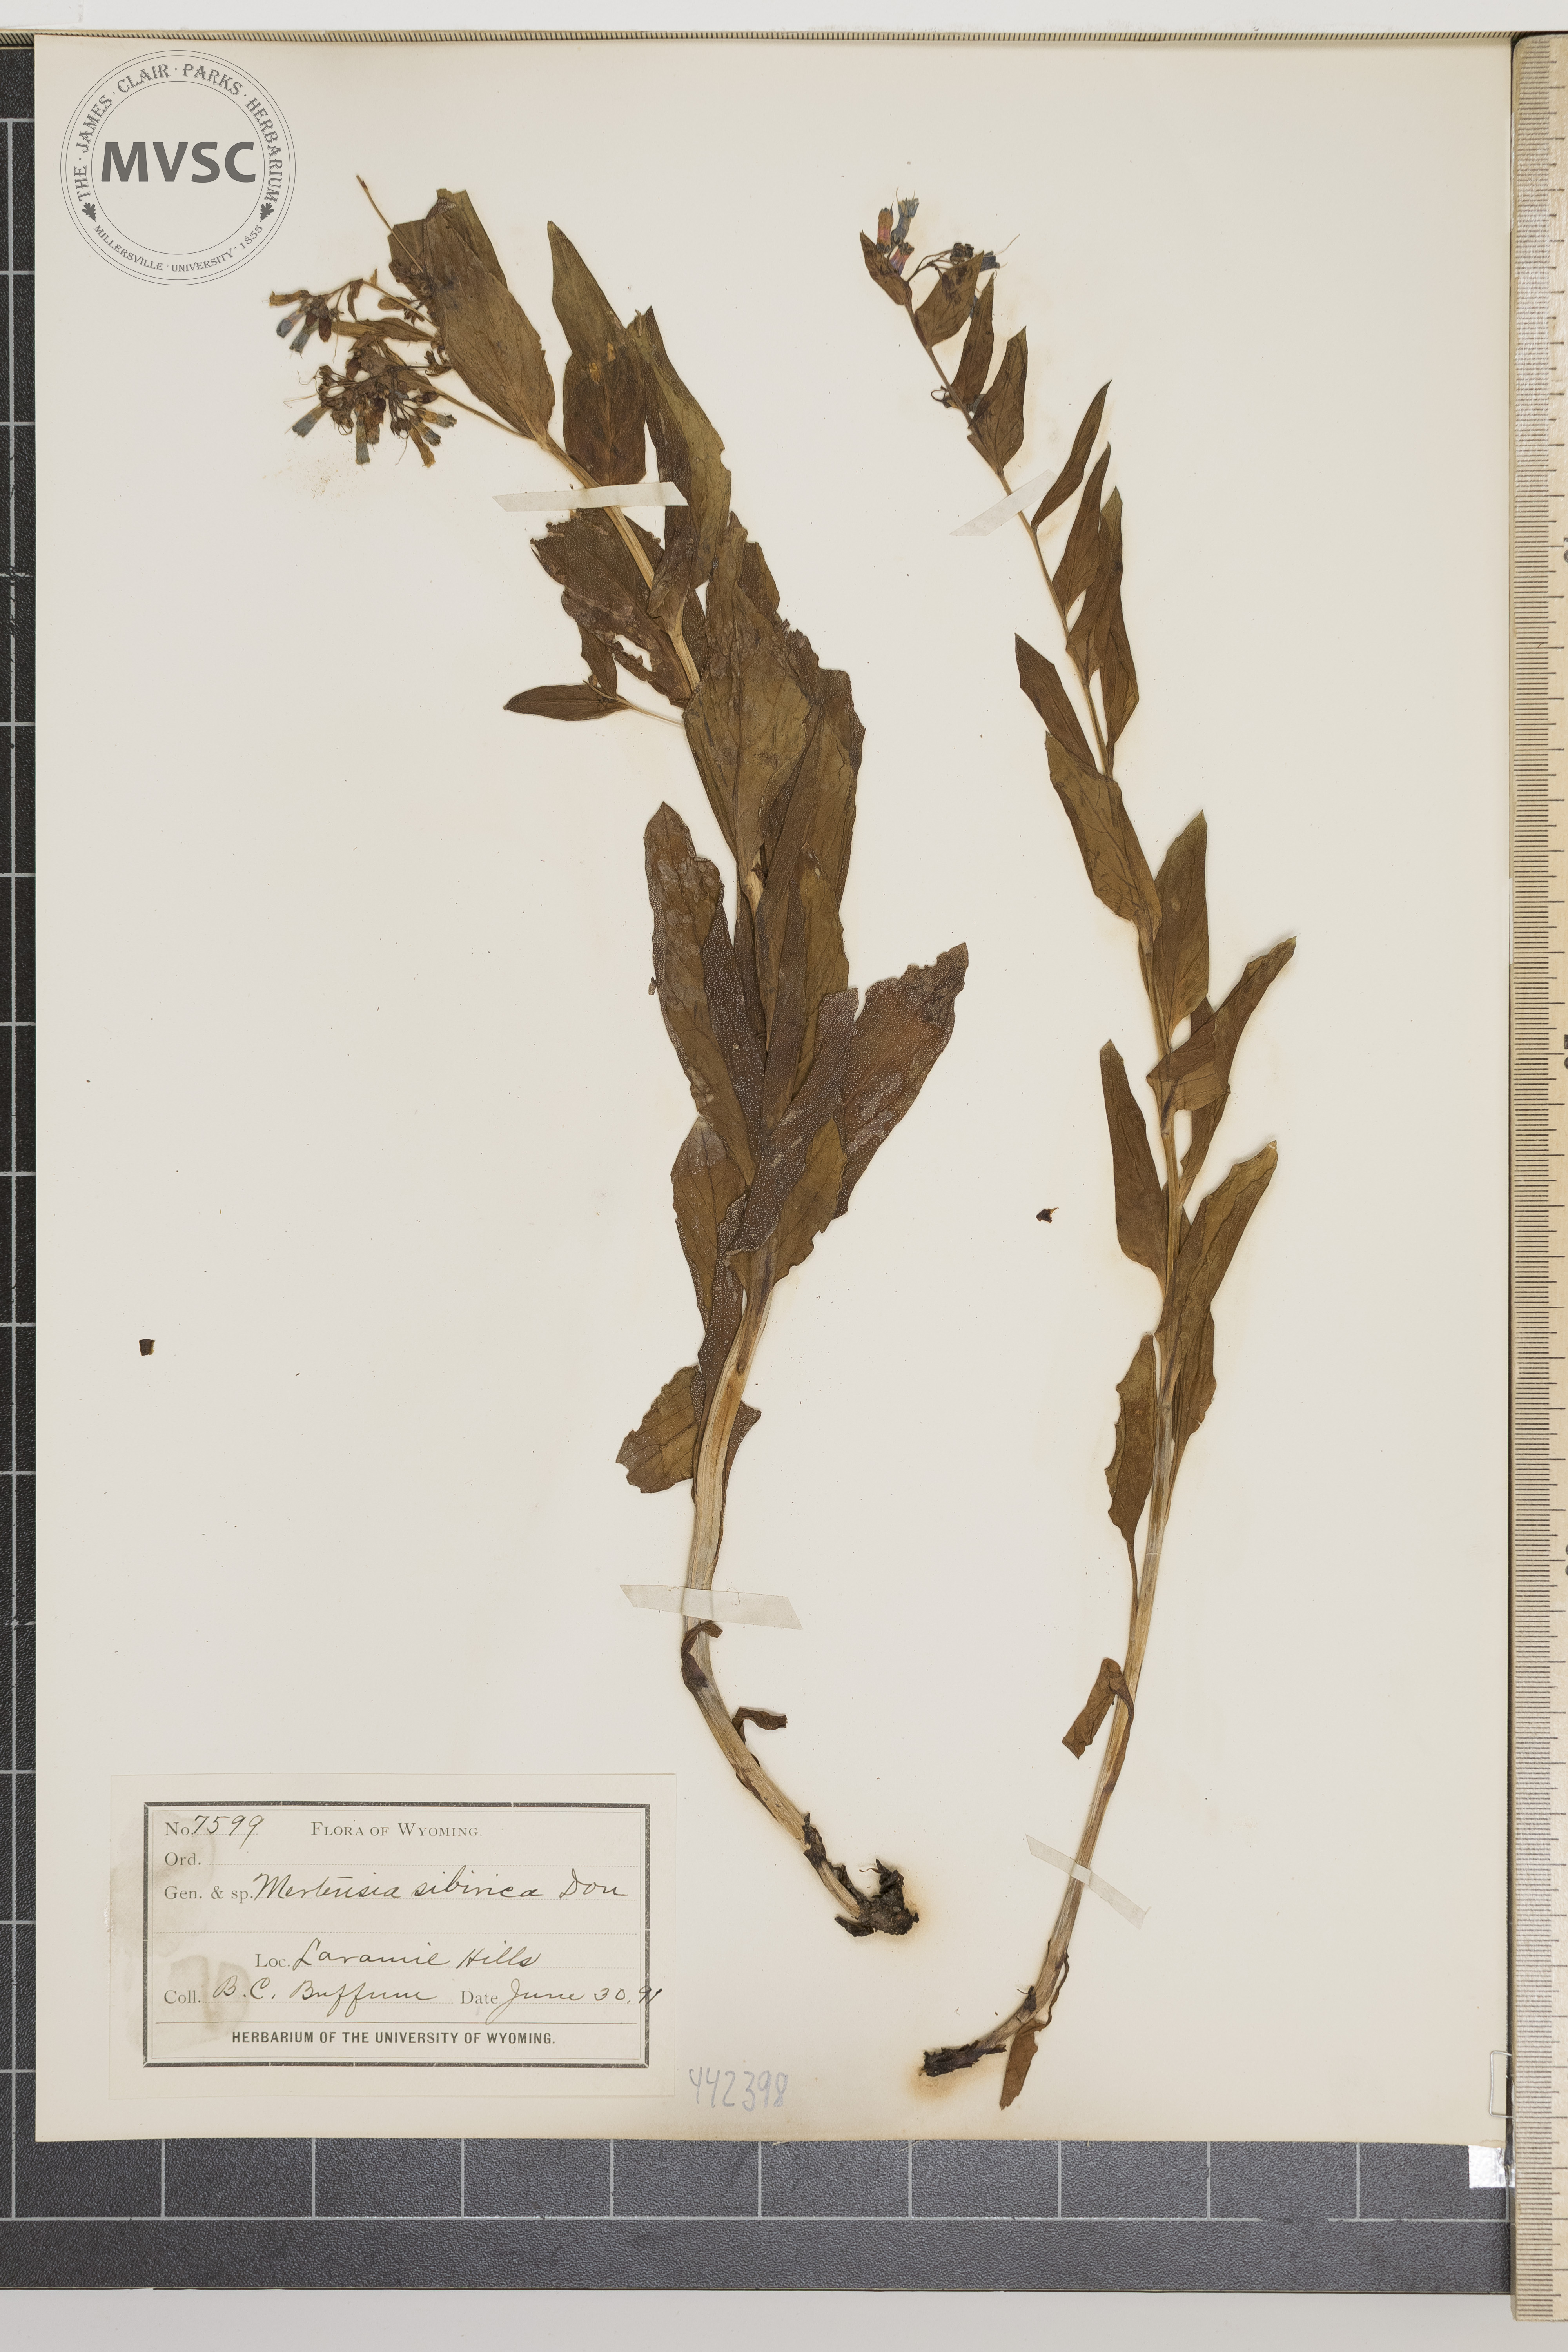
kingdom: Plantae
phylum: Tracheophyta
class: Magnoliopsida
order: Boraginales
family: Boraginaceae
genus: Mertensia
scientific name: Mertensia sibirica
